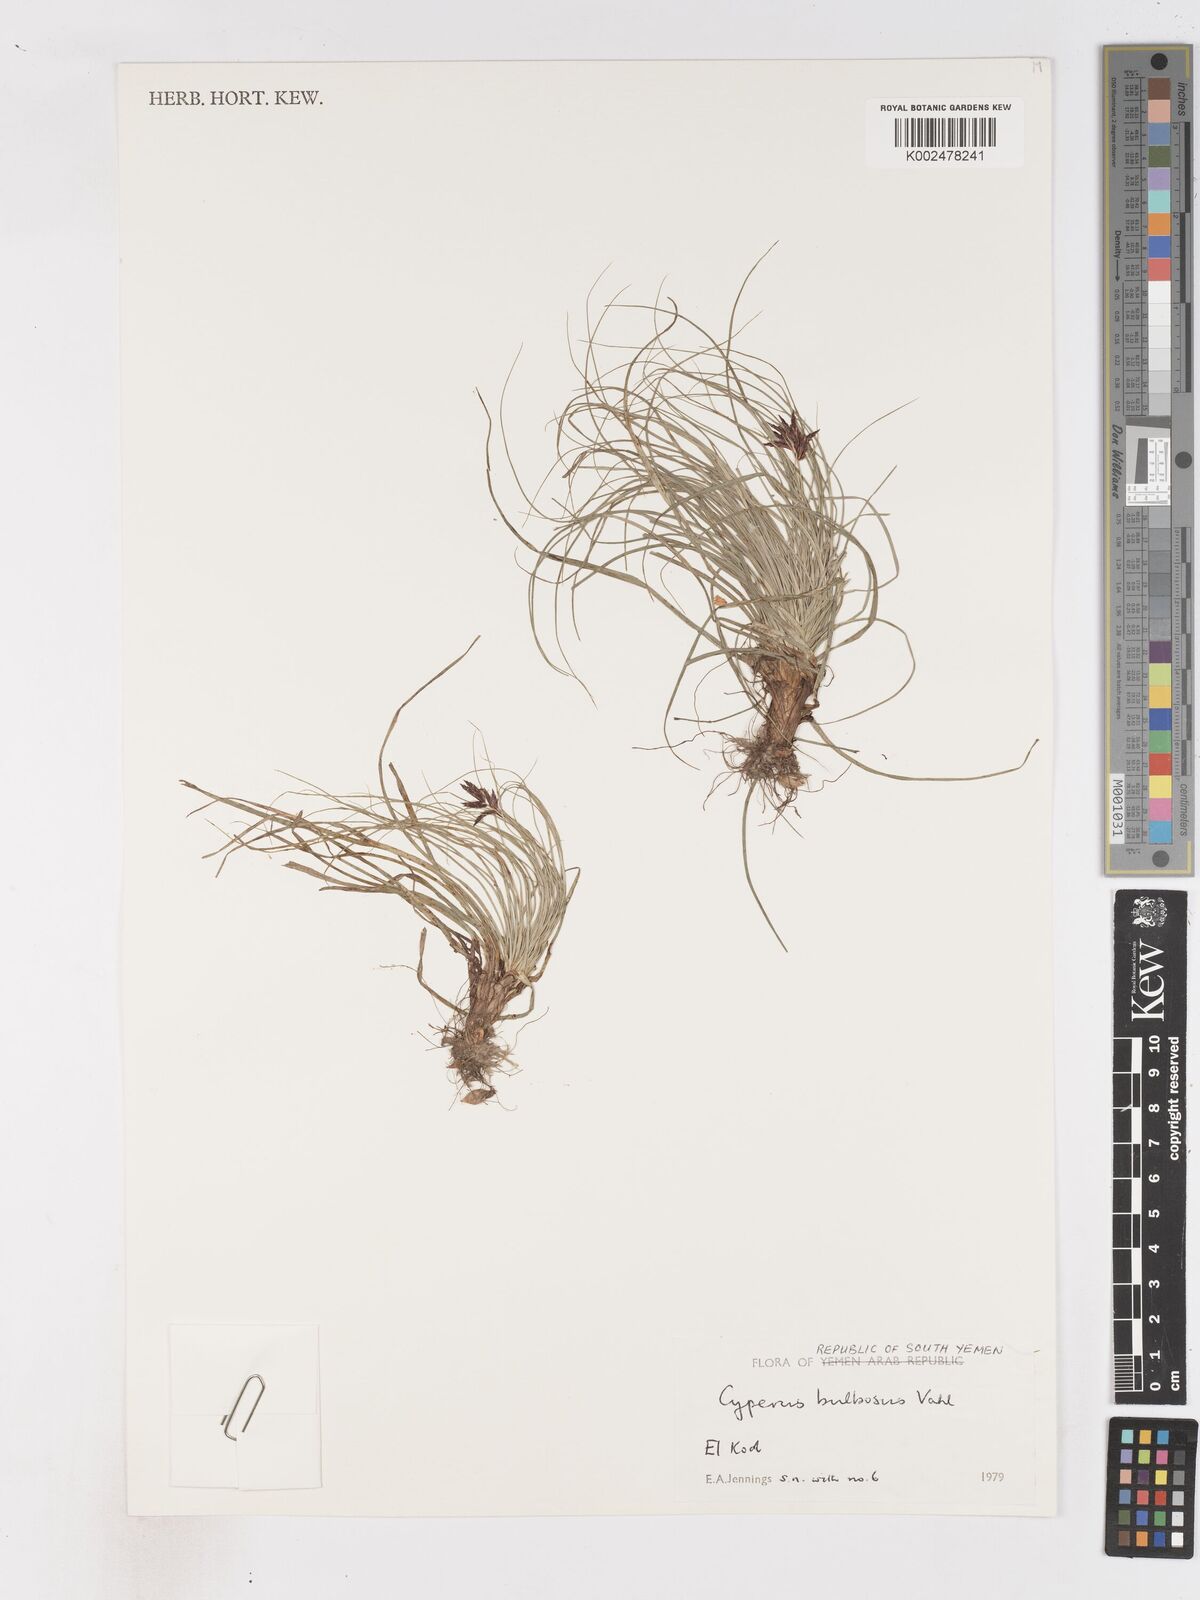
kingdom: Plantae
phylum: Tracheophyta
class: Liliopsida
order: Poales
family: Cyperaceae
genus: Cyperus
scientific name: Cyperus bulbosus
